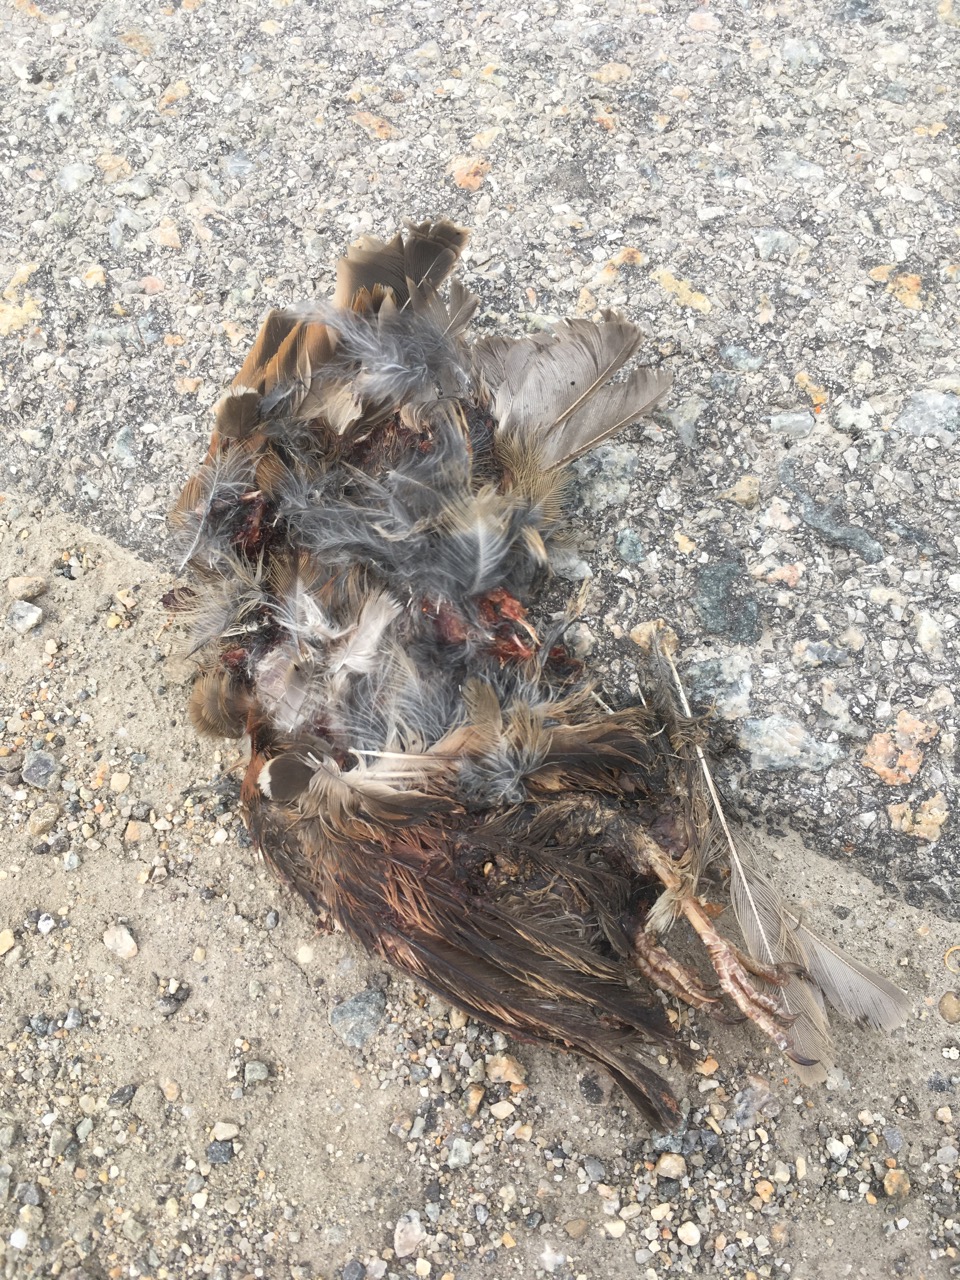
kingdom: Animalia
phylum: Chordata
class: Aves
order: Passeriformes
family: Passeridae
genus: Passer
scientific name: Passer montanus
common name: Eurasian tree sparrow
